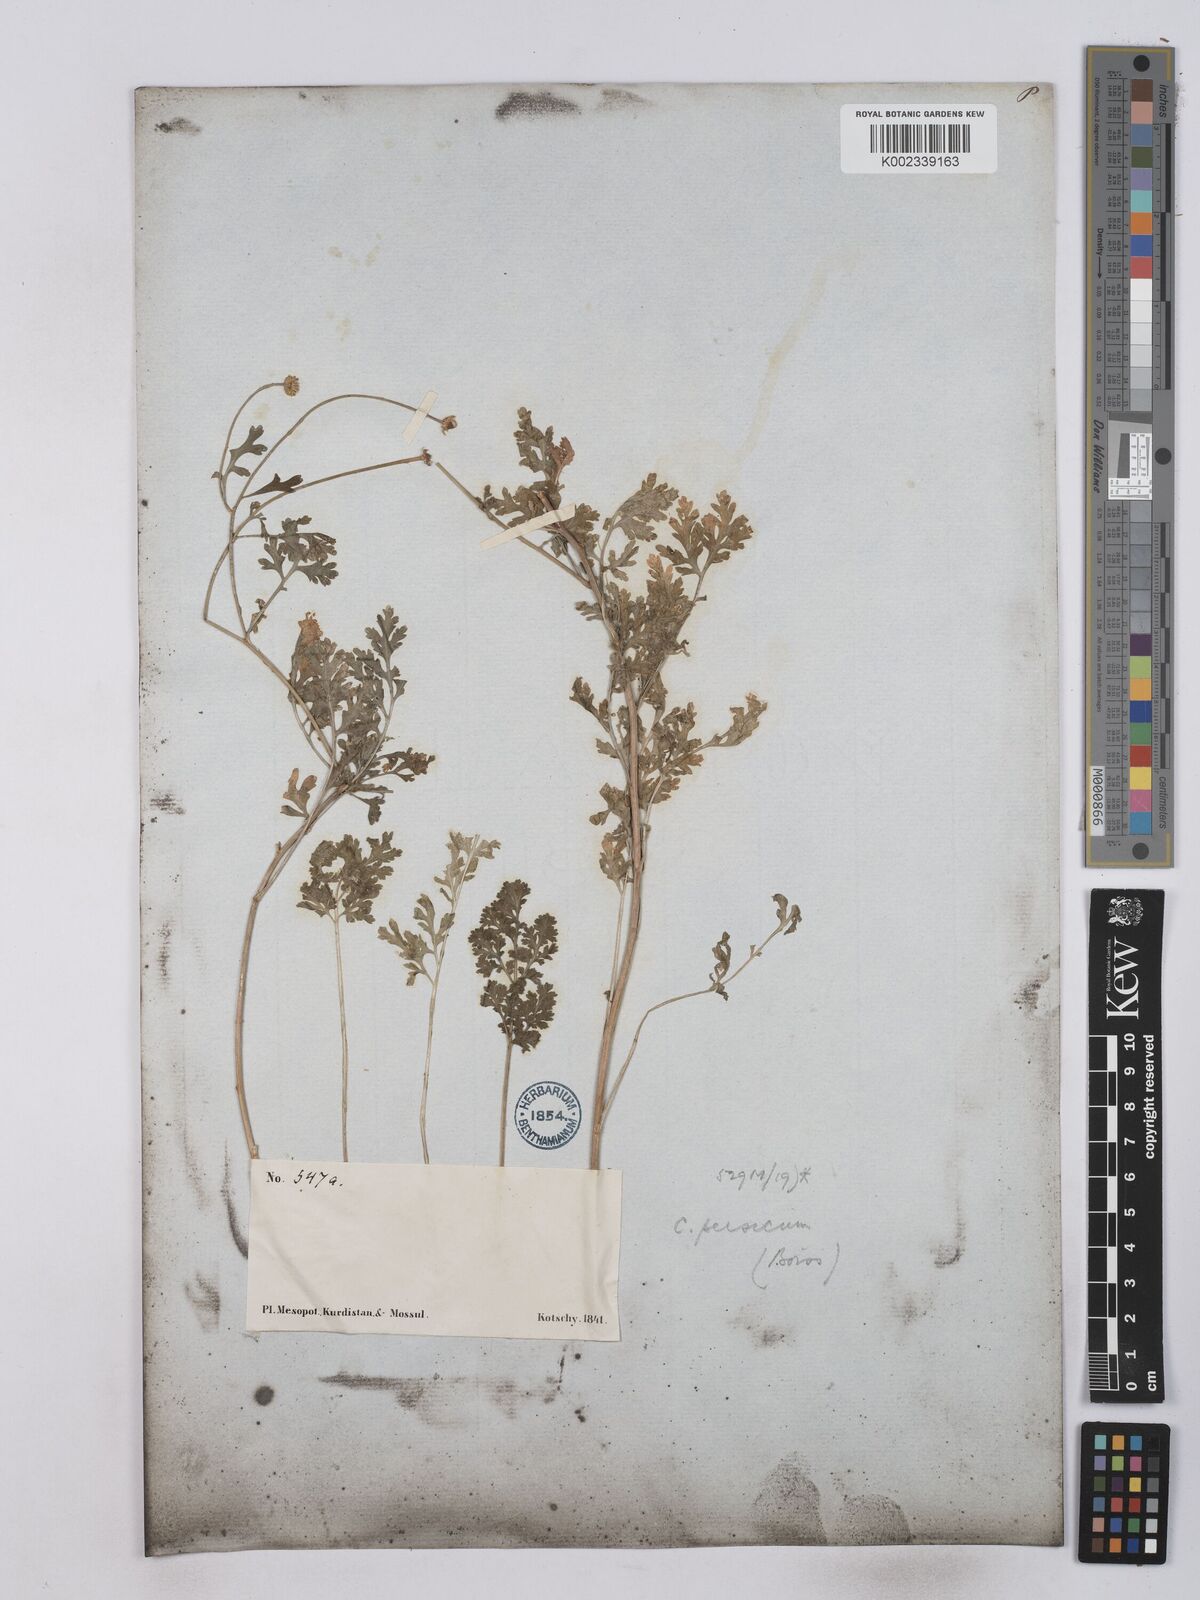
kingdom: Plantae
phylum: Tracheophyta
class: Magnoliopsida
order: Asterales
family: Asteraceae
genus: Tanacetum
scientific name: Tanacetum partheniifolium
